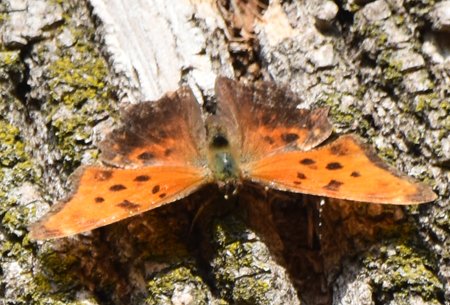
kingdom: Animalia
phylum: Arthropoda
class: Insecta
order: Lepidoptera
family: Nymphalidae
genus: Polygonia
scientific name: Polygonia comma
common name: Eastern Comma
